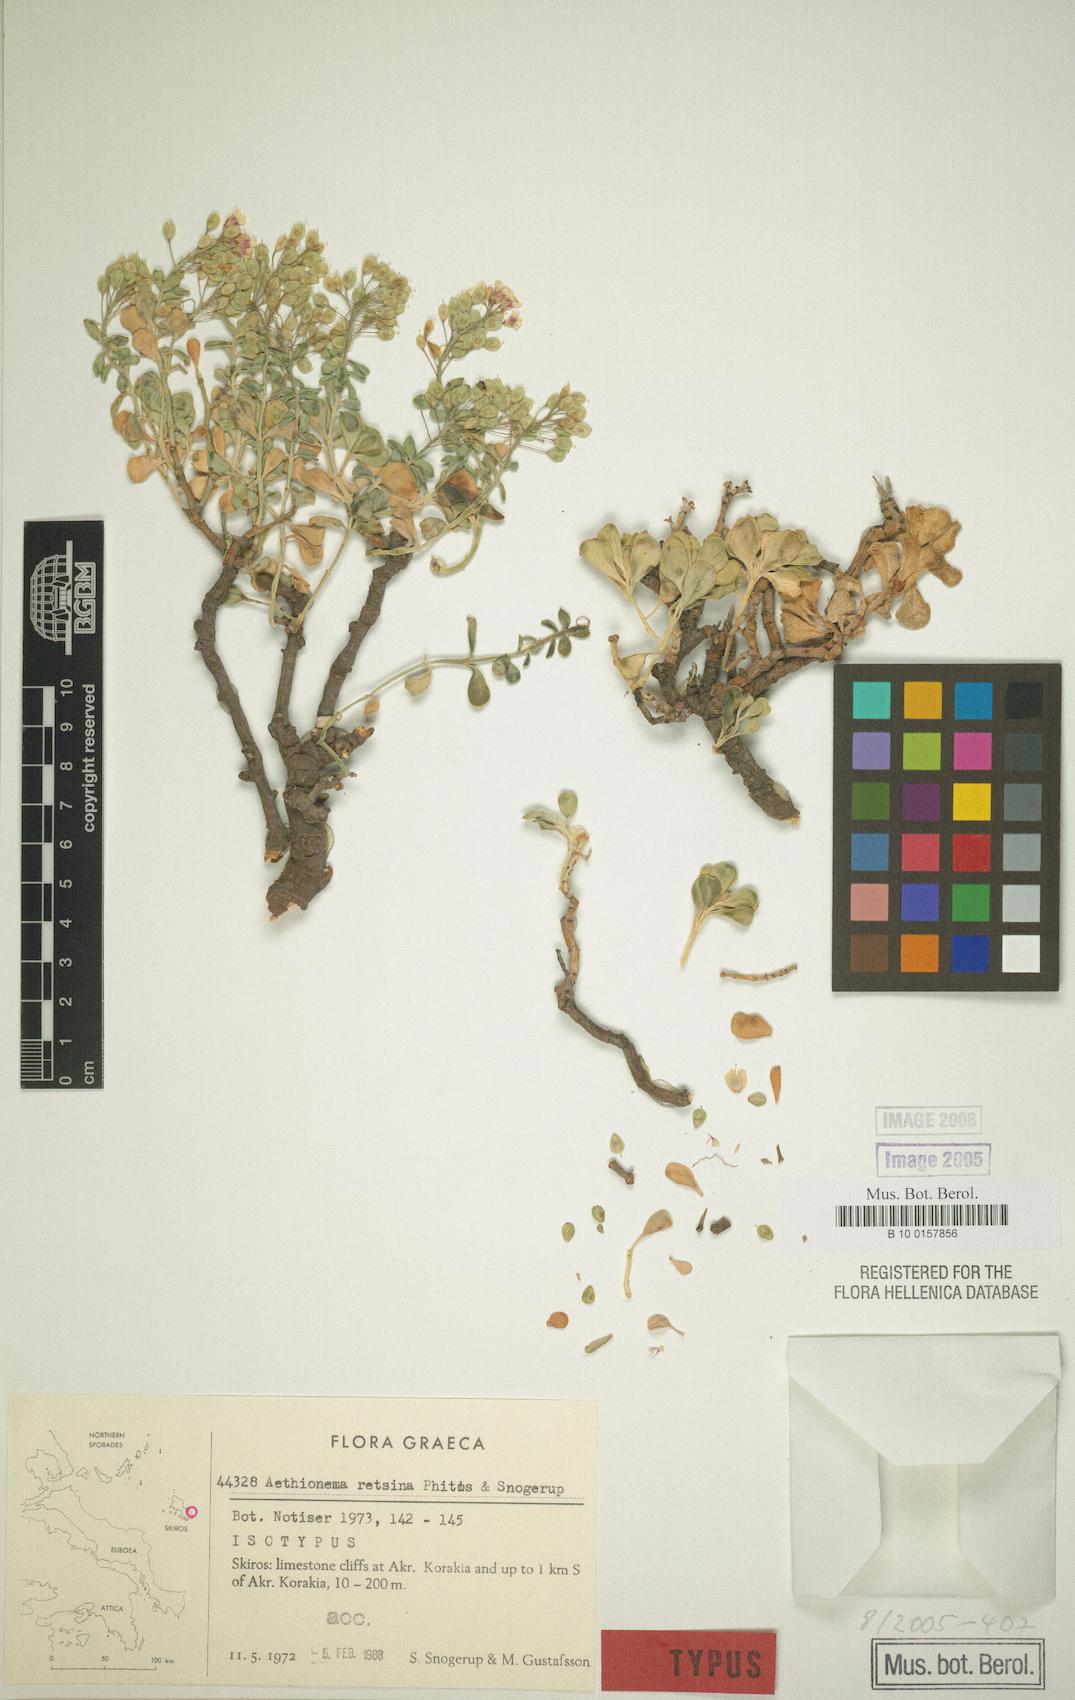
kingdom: Plantae
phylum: Tracheophyta
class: Magnoliopsida
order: Brassicales
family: Brassicaceae
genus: Aethionema
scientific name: Aethionema retsina
